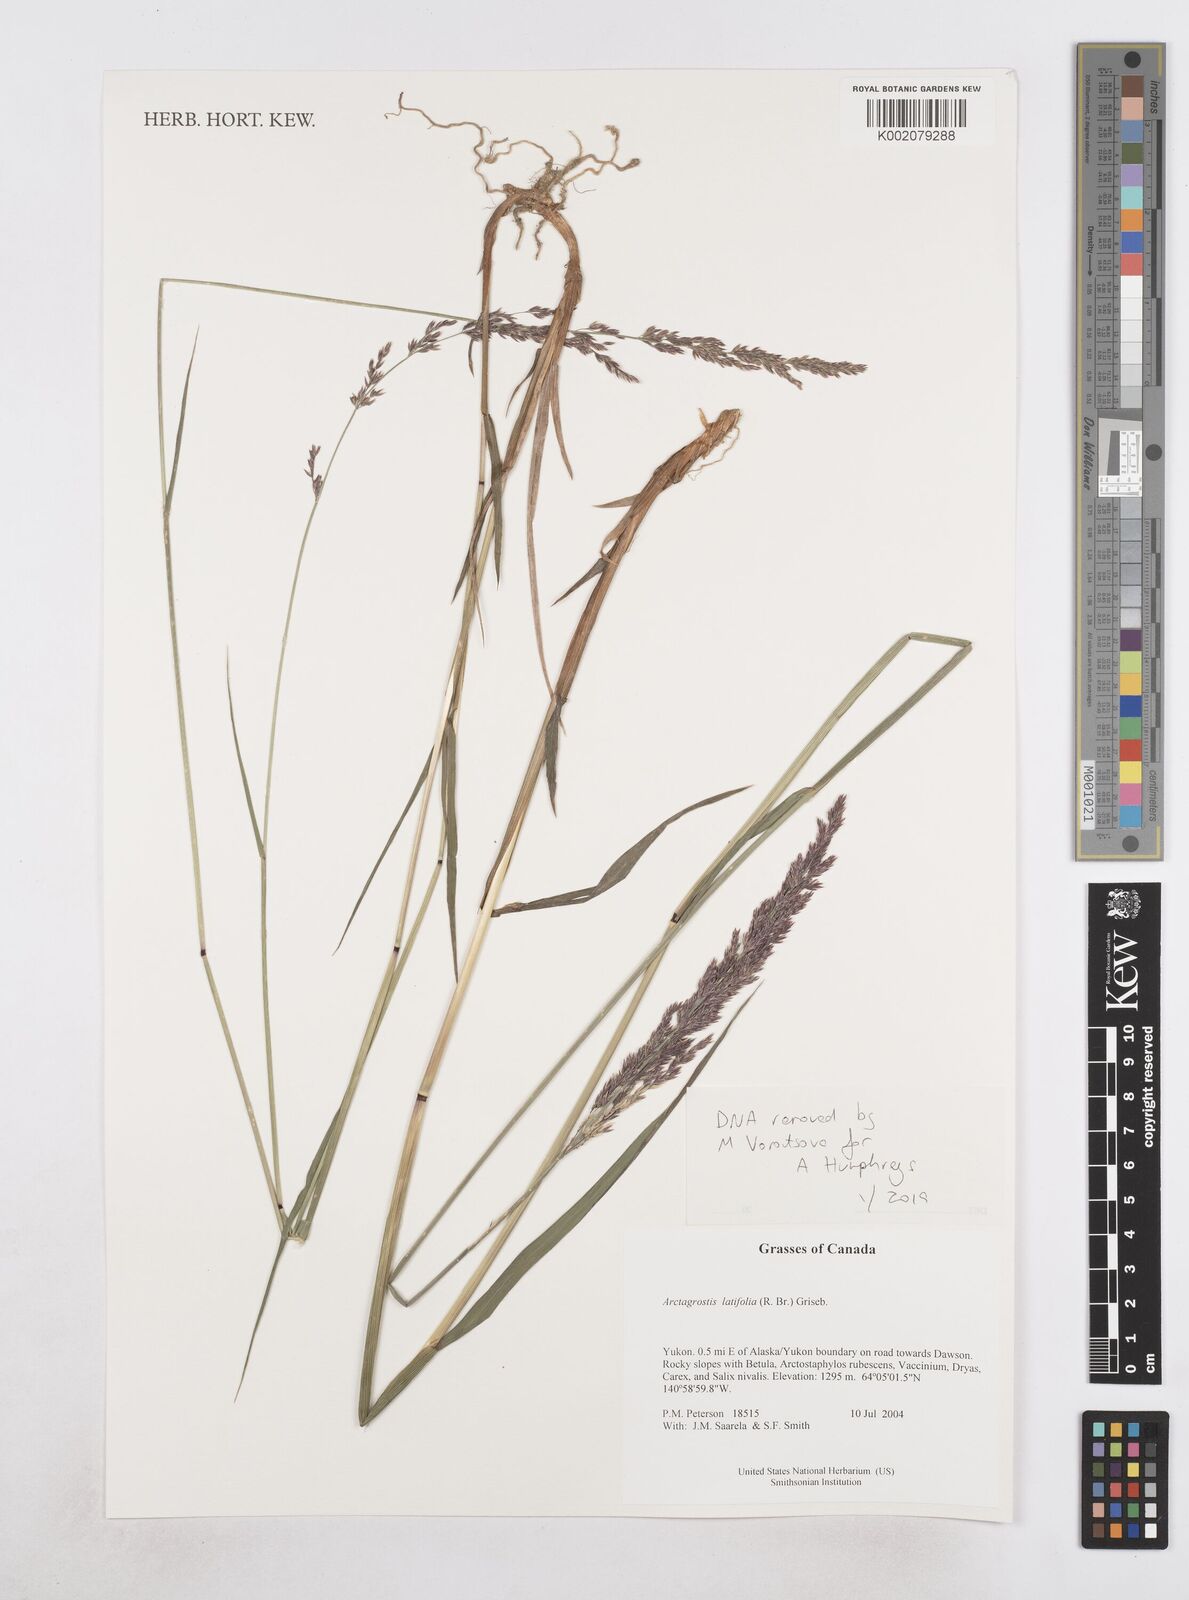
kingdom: Plantae
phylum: Tracheophyta
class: Liliopsida
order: Poales
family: Poaceae
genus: Arctagrostis
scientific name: Arctagrostis latifolia
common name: Arctic grass
